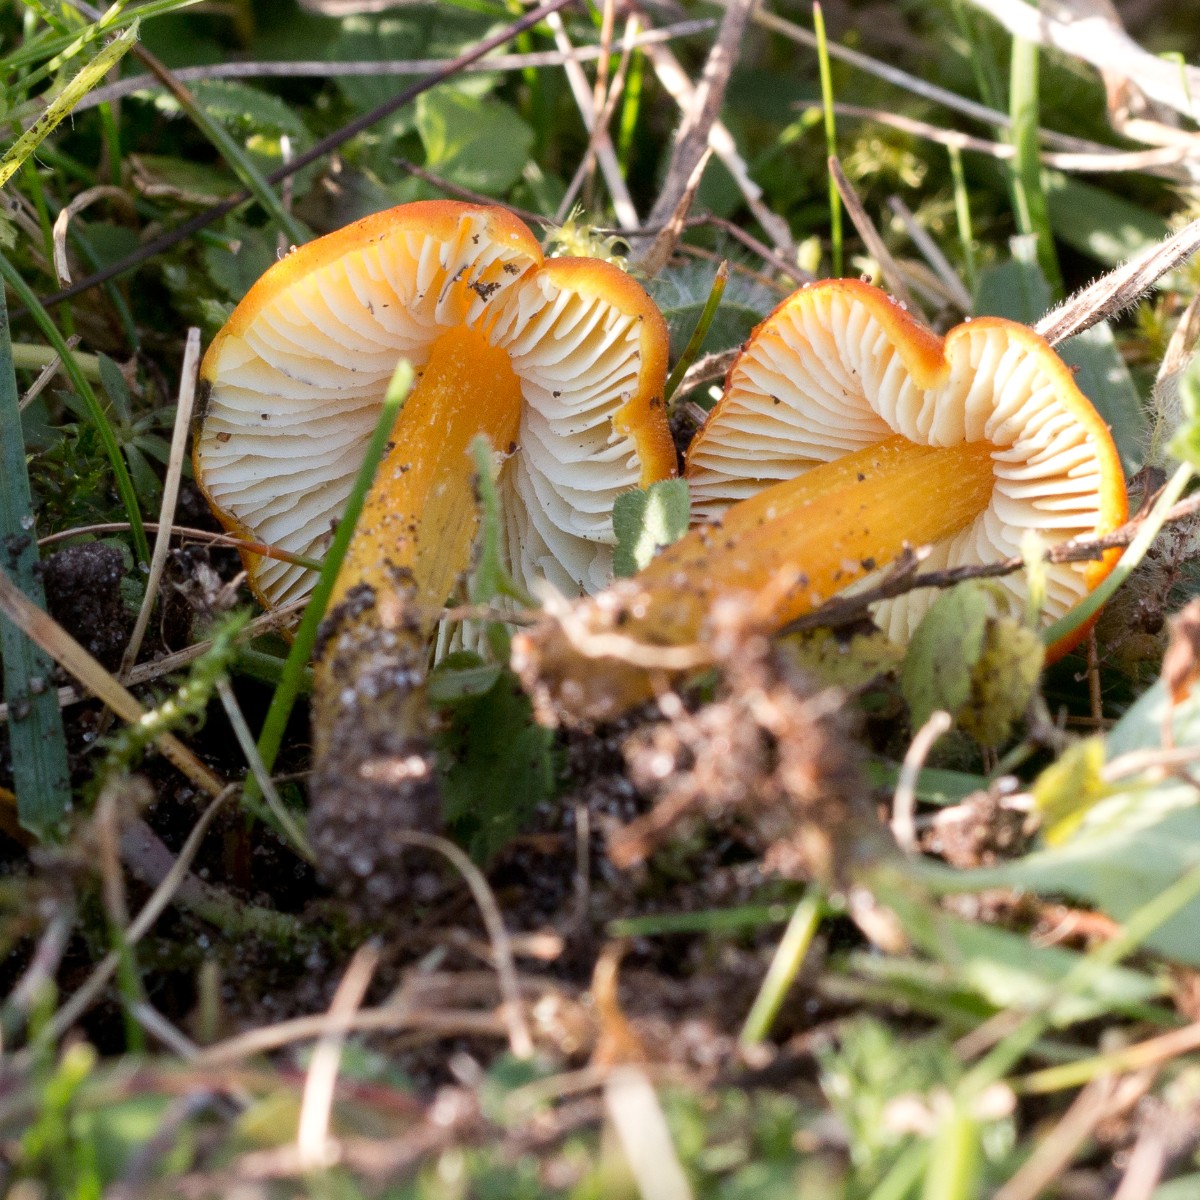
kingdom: Fungi
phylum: Basidiomycota
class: Agaricomycetes
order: Agaricales
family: Hygrophoraceae
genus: Hygrocybe
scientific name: Hygrocybe conica
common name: kegle-vokshat
